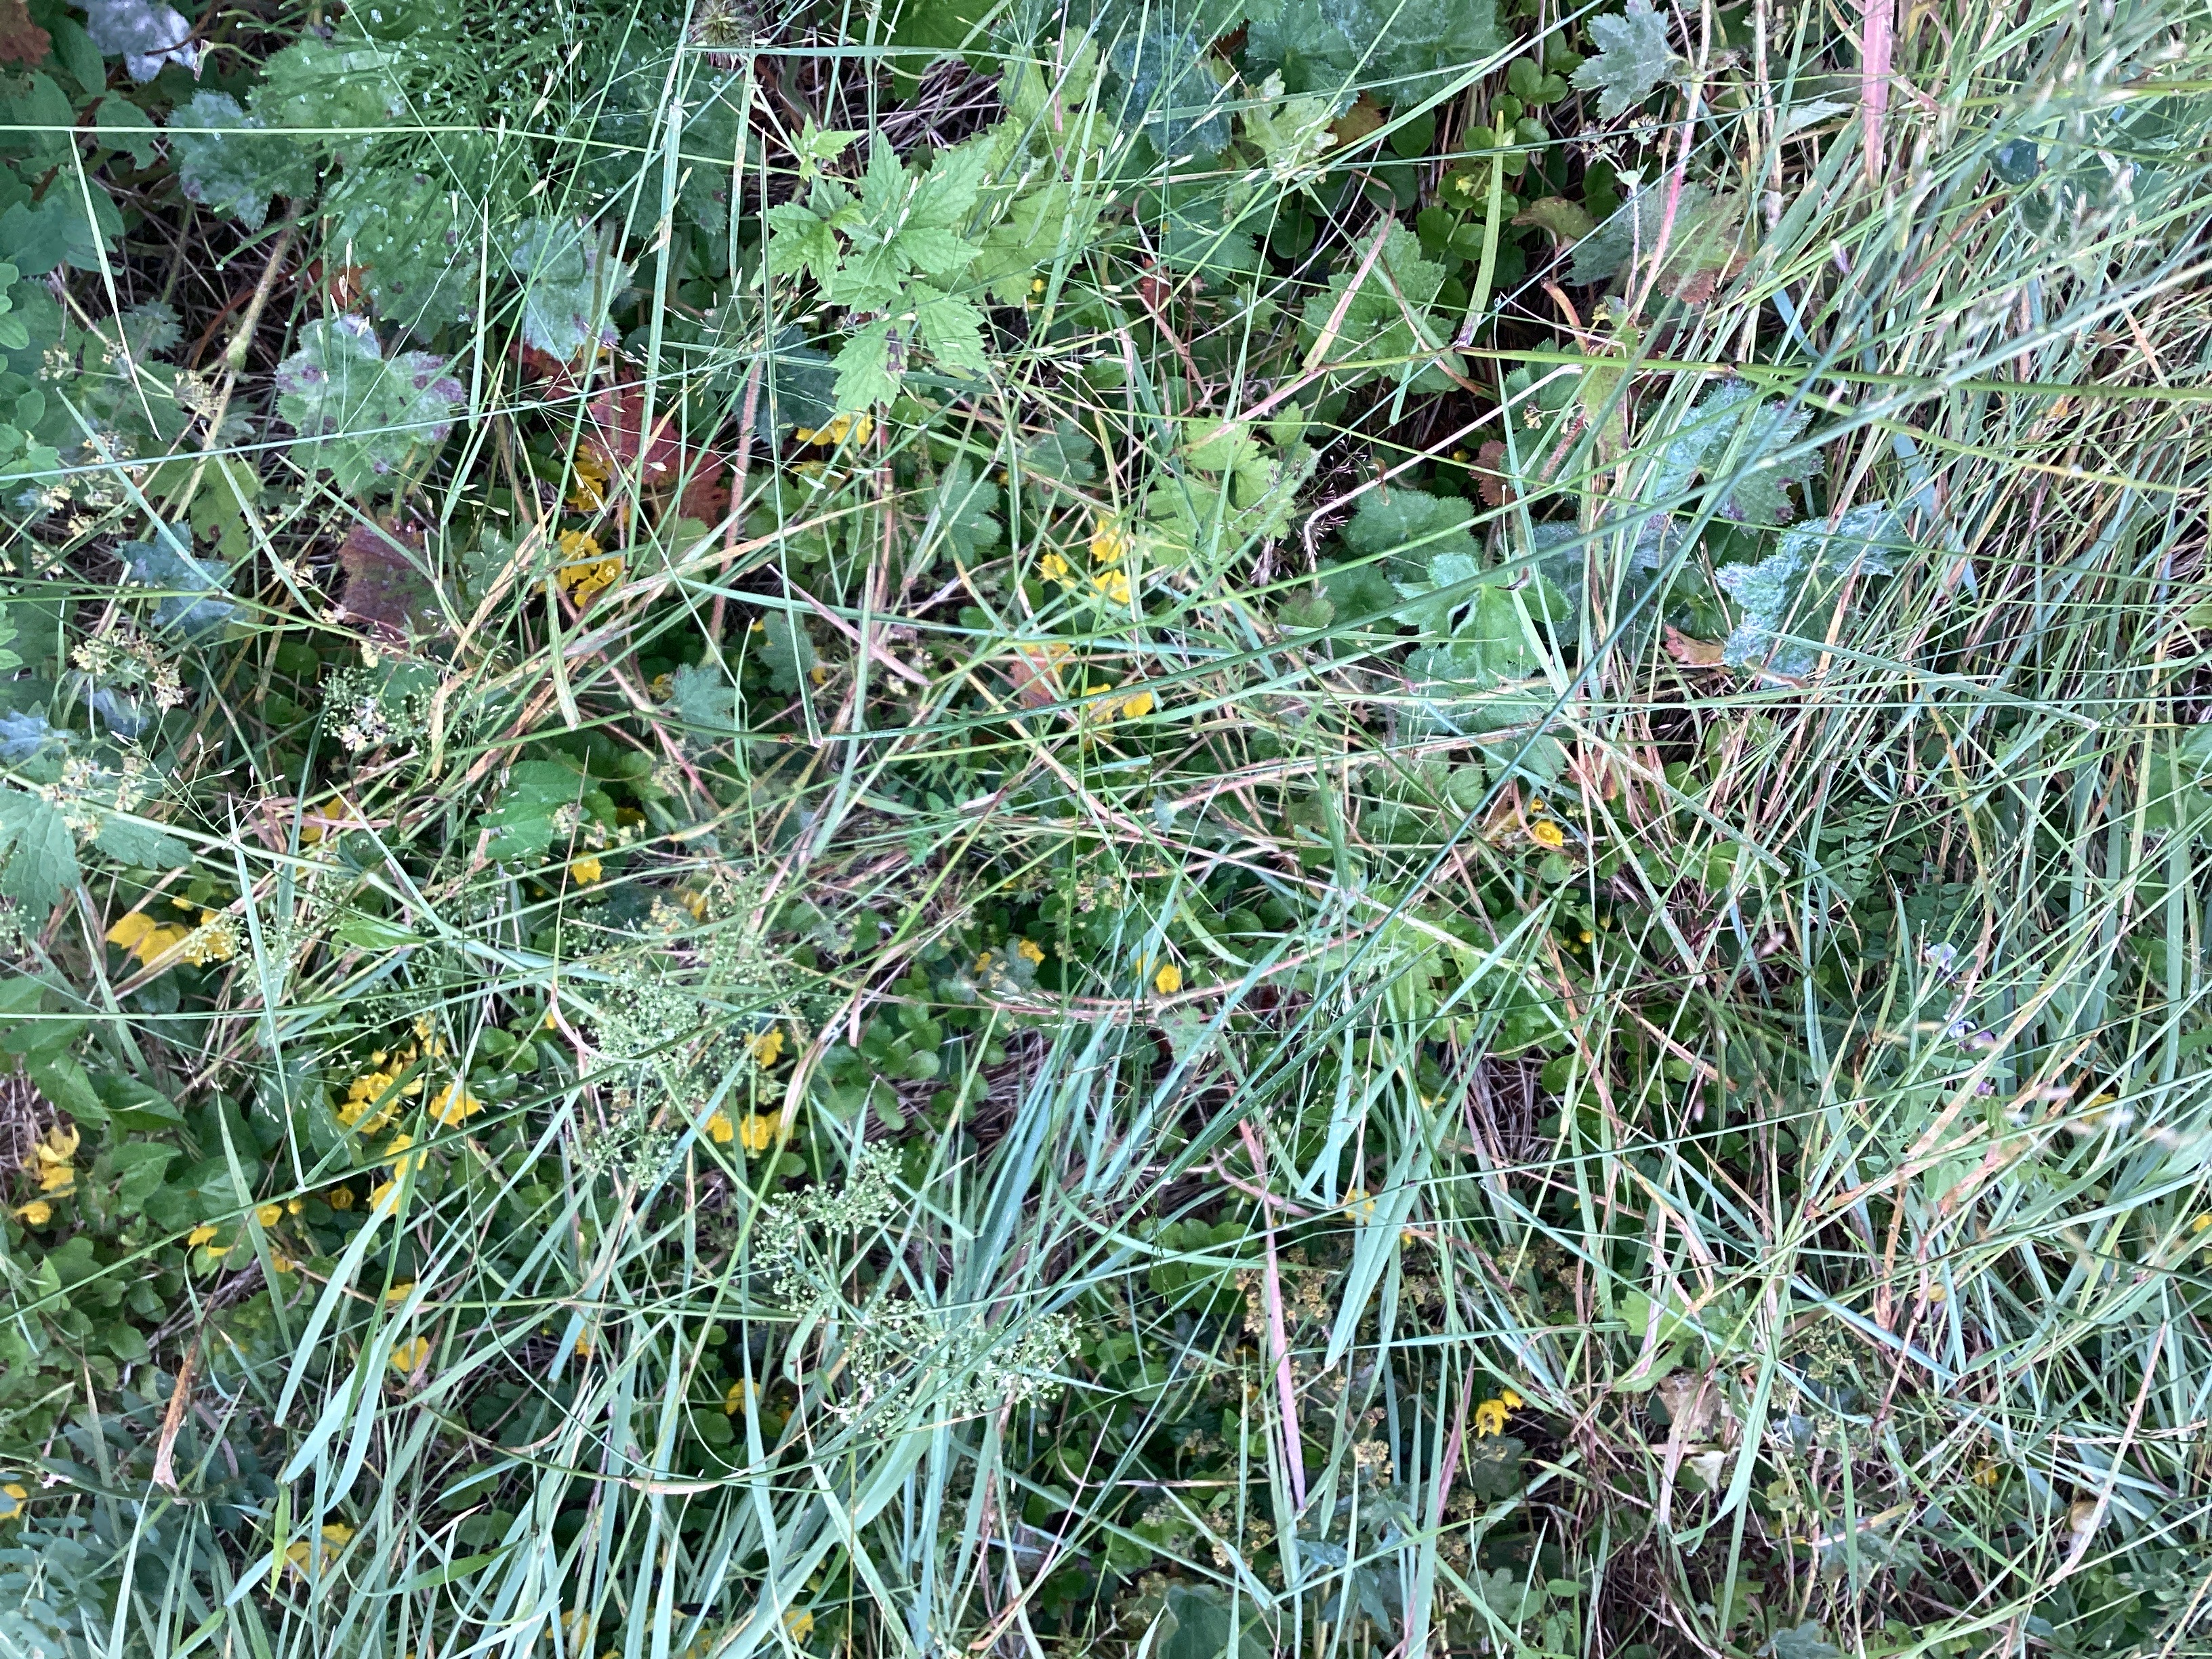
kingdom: Plantae
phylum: Tracheophyta
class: Magnoliopsida
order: Ericales
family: Primulaceae
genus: Lysimachia
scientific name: Lysimachia nummularia
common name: krypfredløs
